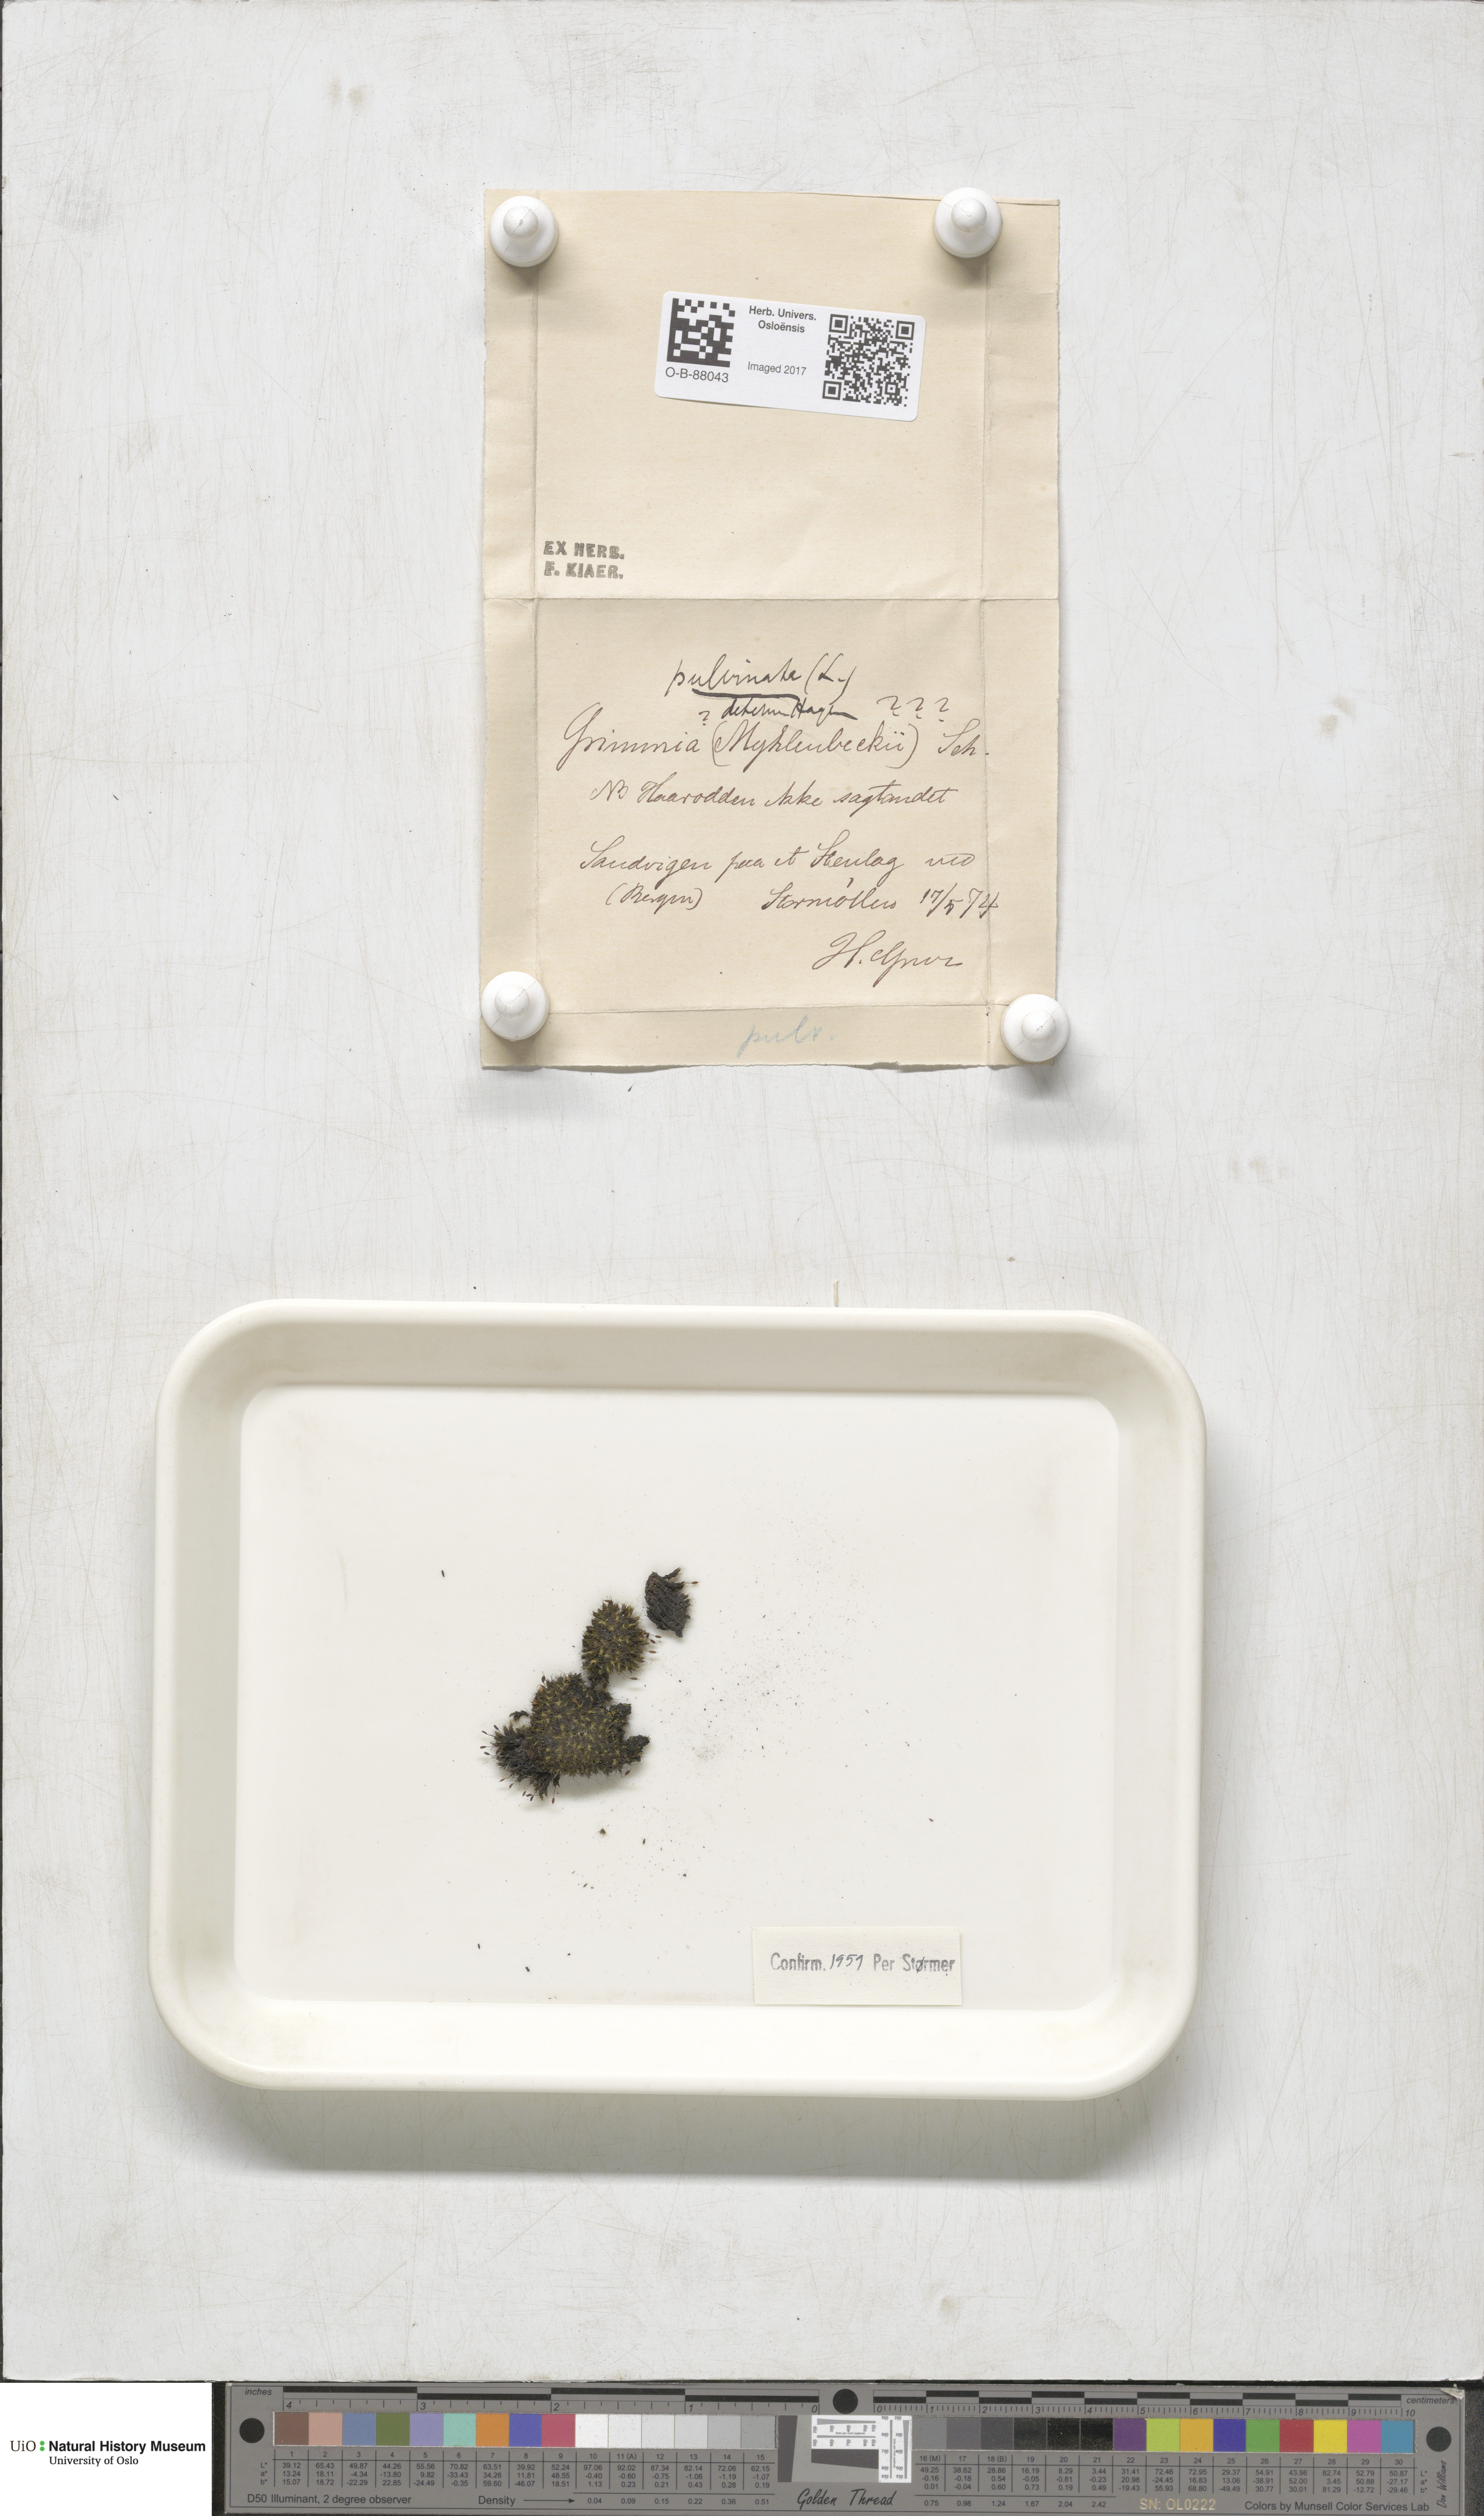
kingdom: Plantae
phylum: Bryophyta
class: Bryopsida
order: Grimmiales
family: Grimmiaceae
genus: Grimmia
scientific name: Grimmia pulvinata
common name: Grey-cushioned grimmia
